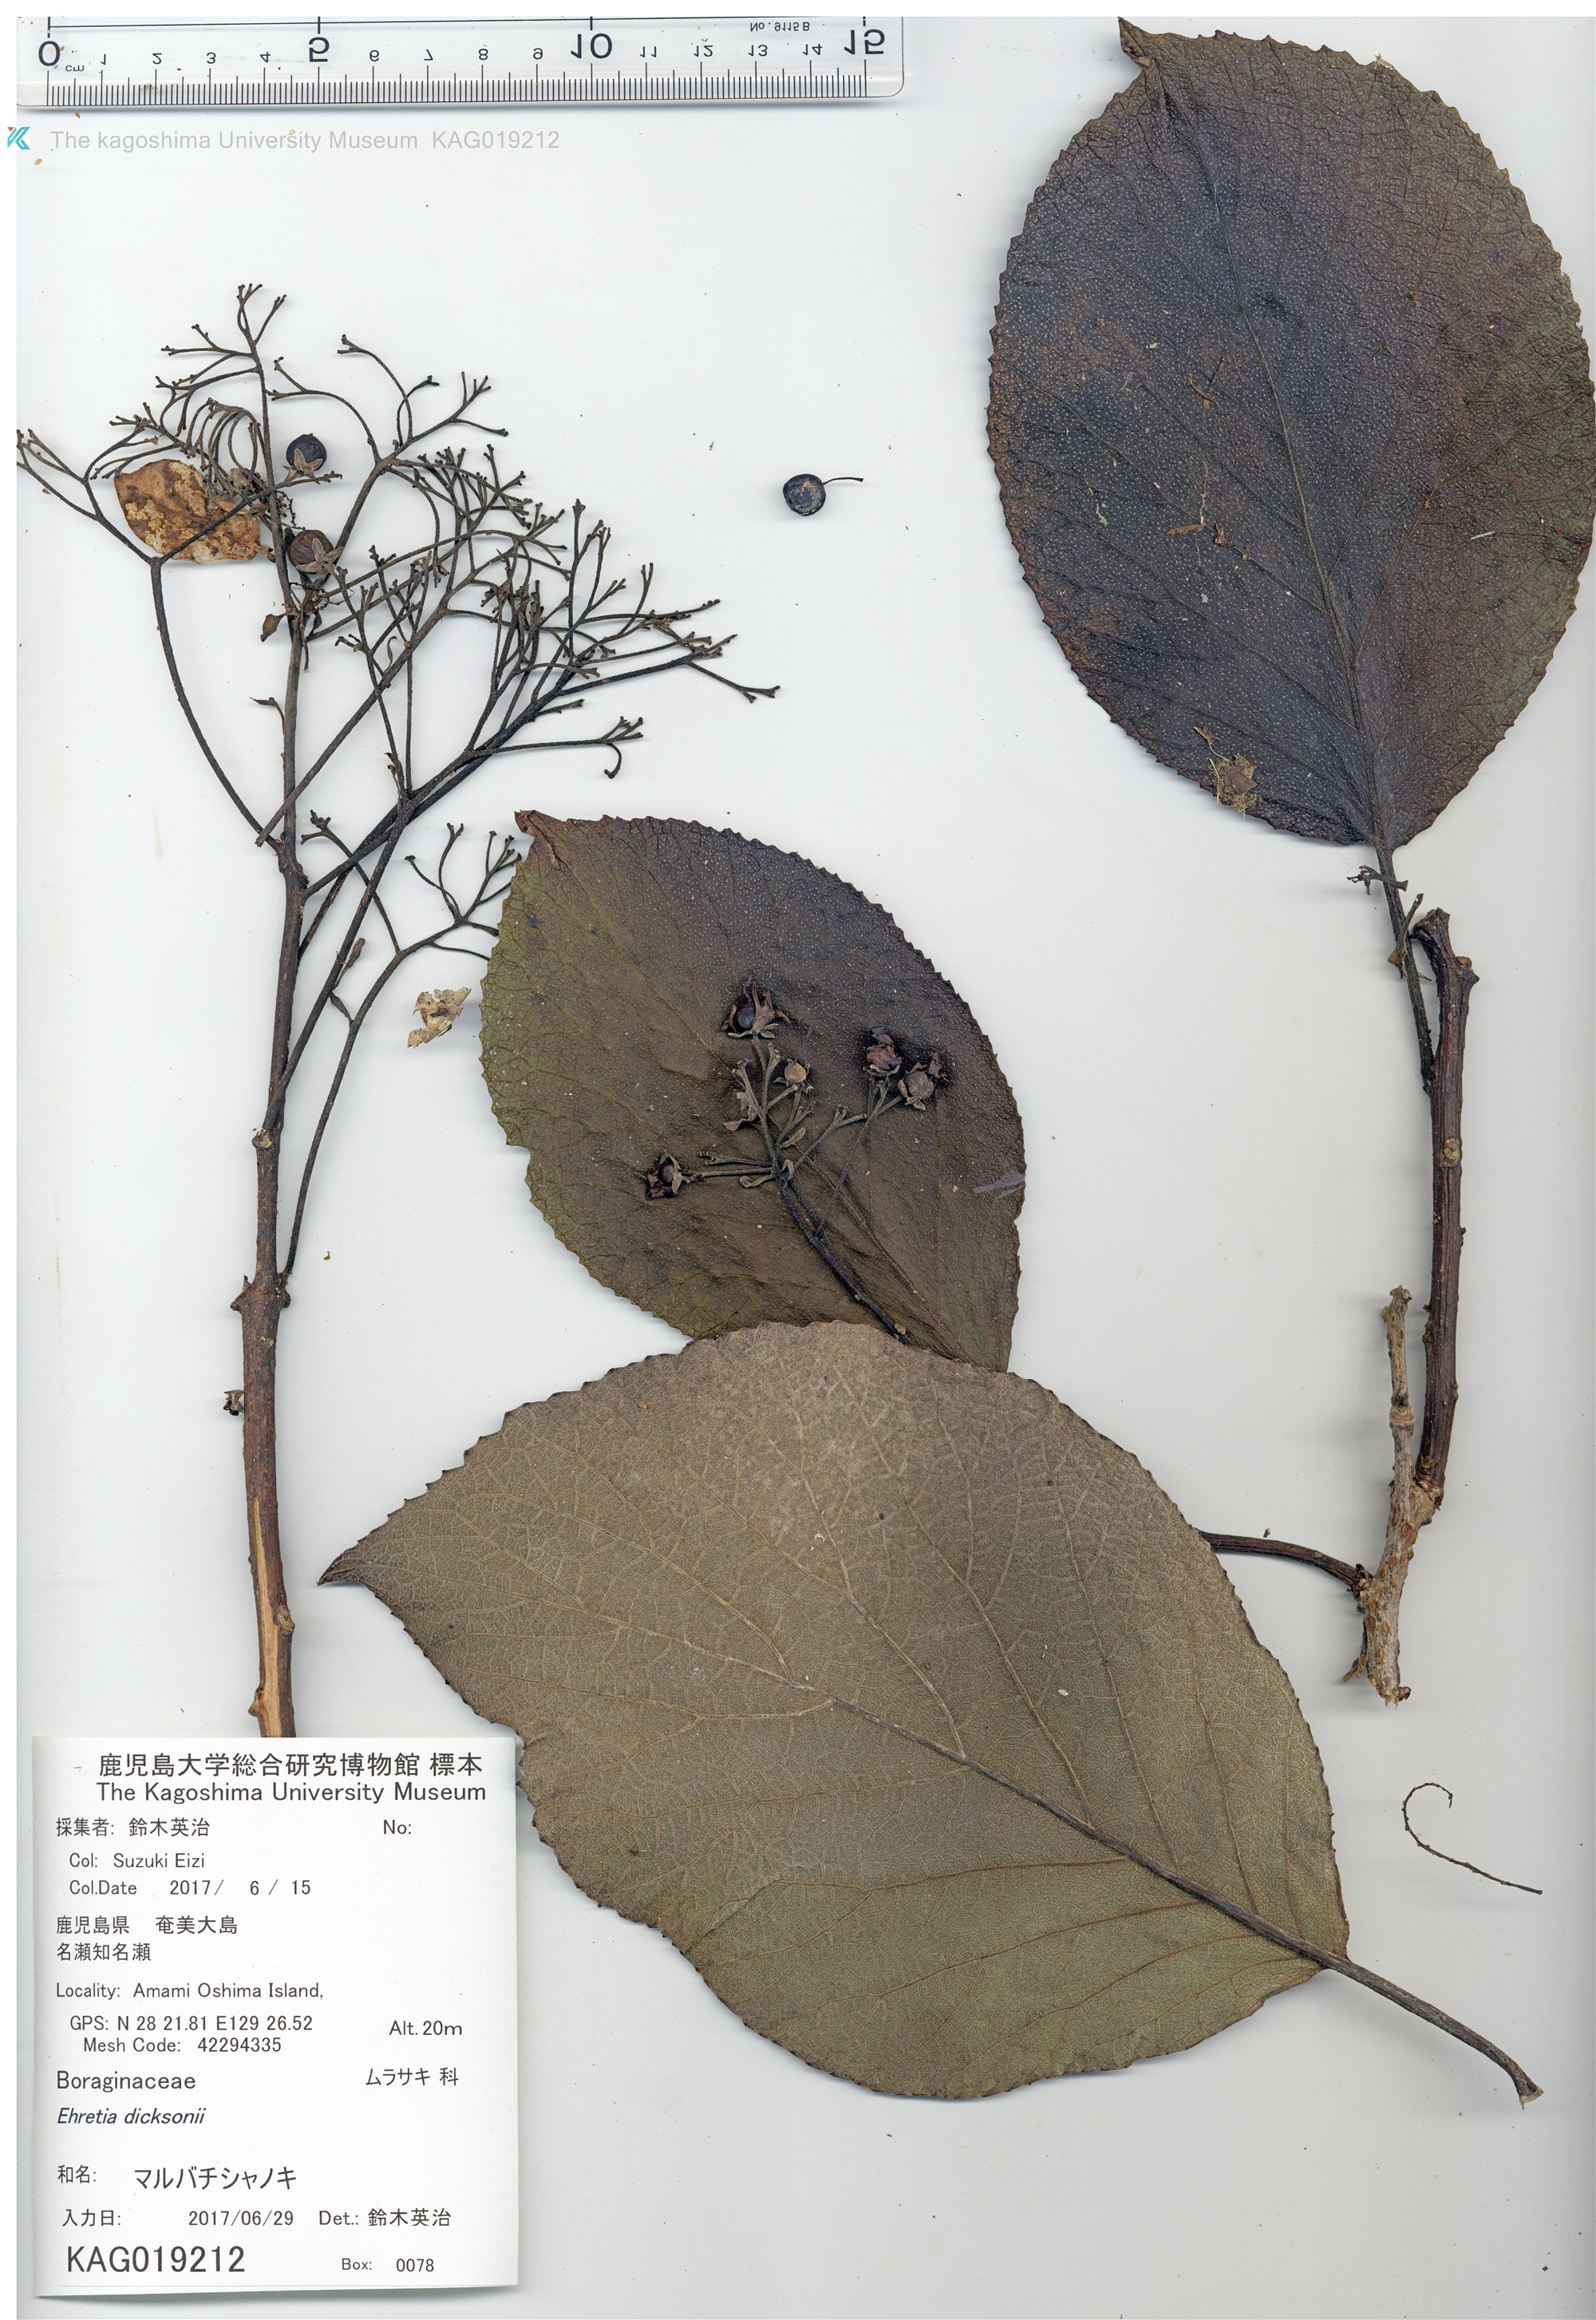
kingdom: Plantae
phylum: Tracheophyta
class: Magnoliopsida
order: Boraginales
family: Ehretiaceae
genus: Ehretia
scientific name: Ehretia dicksonii
